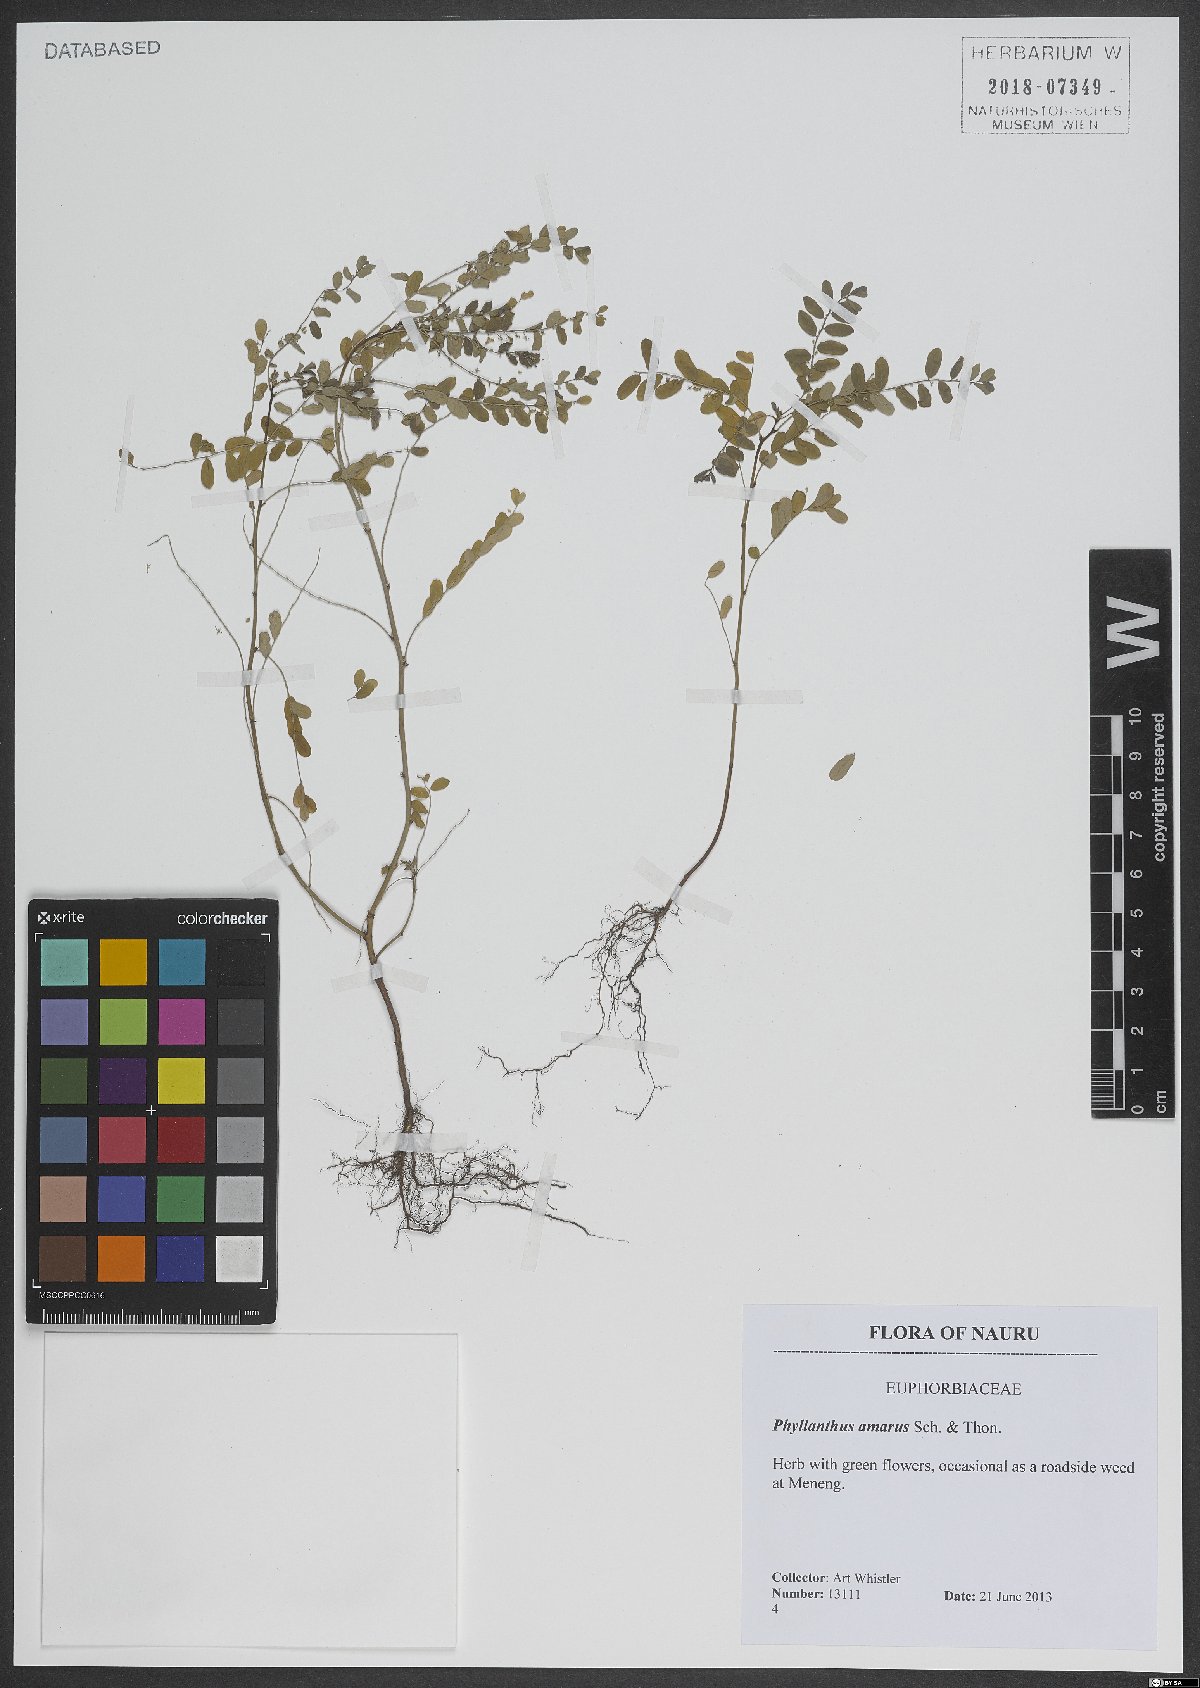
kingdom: Plantae
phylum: Tracheophyta
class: Magnoliopsida
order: Malpighiales
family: Phyllanthaceae
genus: Phyllanthus
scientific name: Phyllanthus amarus
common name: Carry me seed
